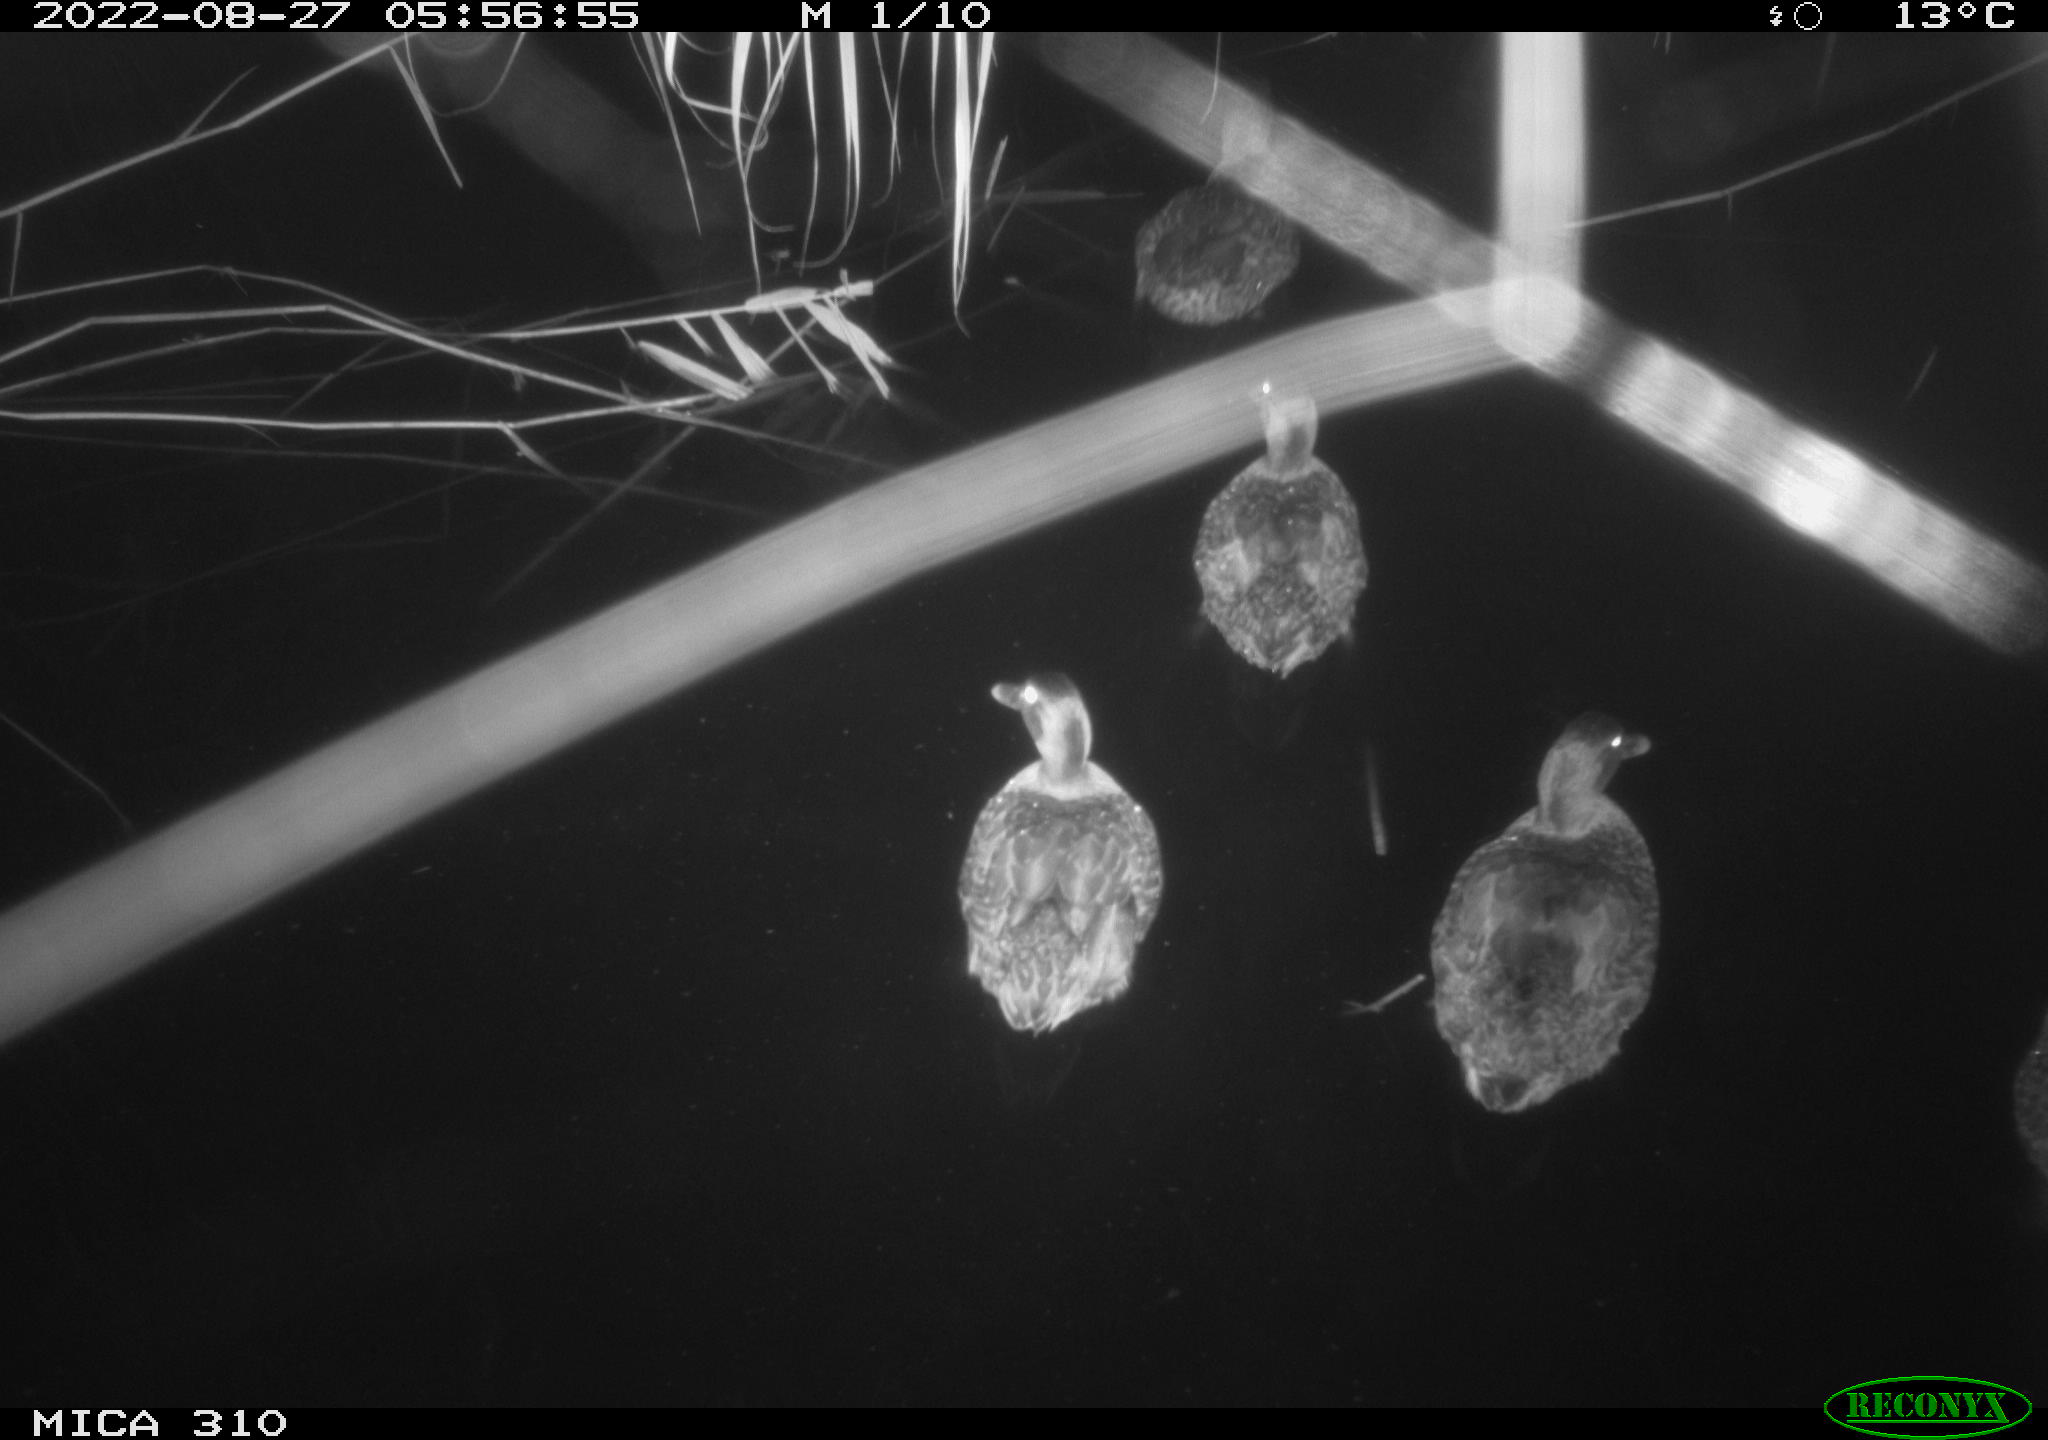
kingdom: Animalia
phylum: Chordata
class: Aves
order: Anseriformes
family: Anatidae
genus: Anas
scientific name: Anas platyrhynchos
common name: Mallard
